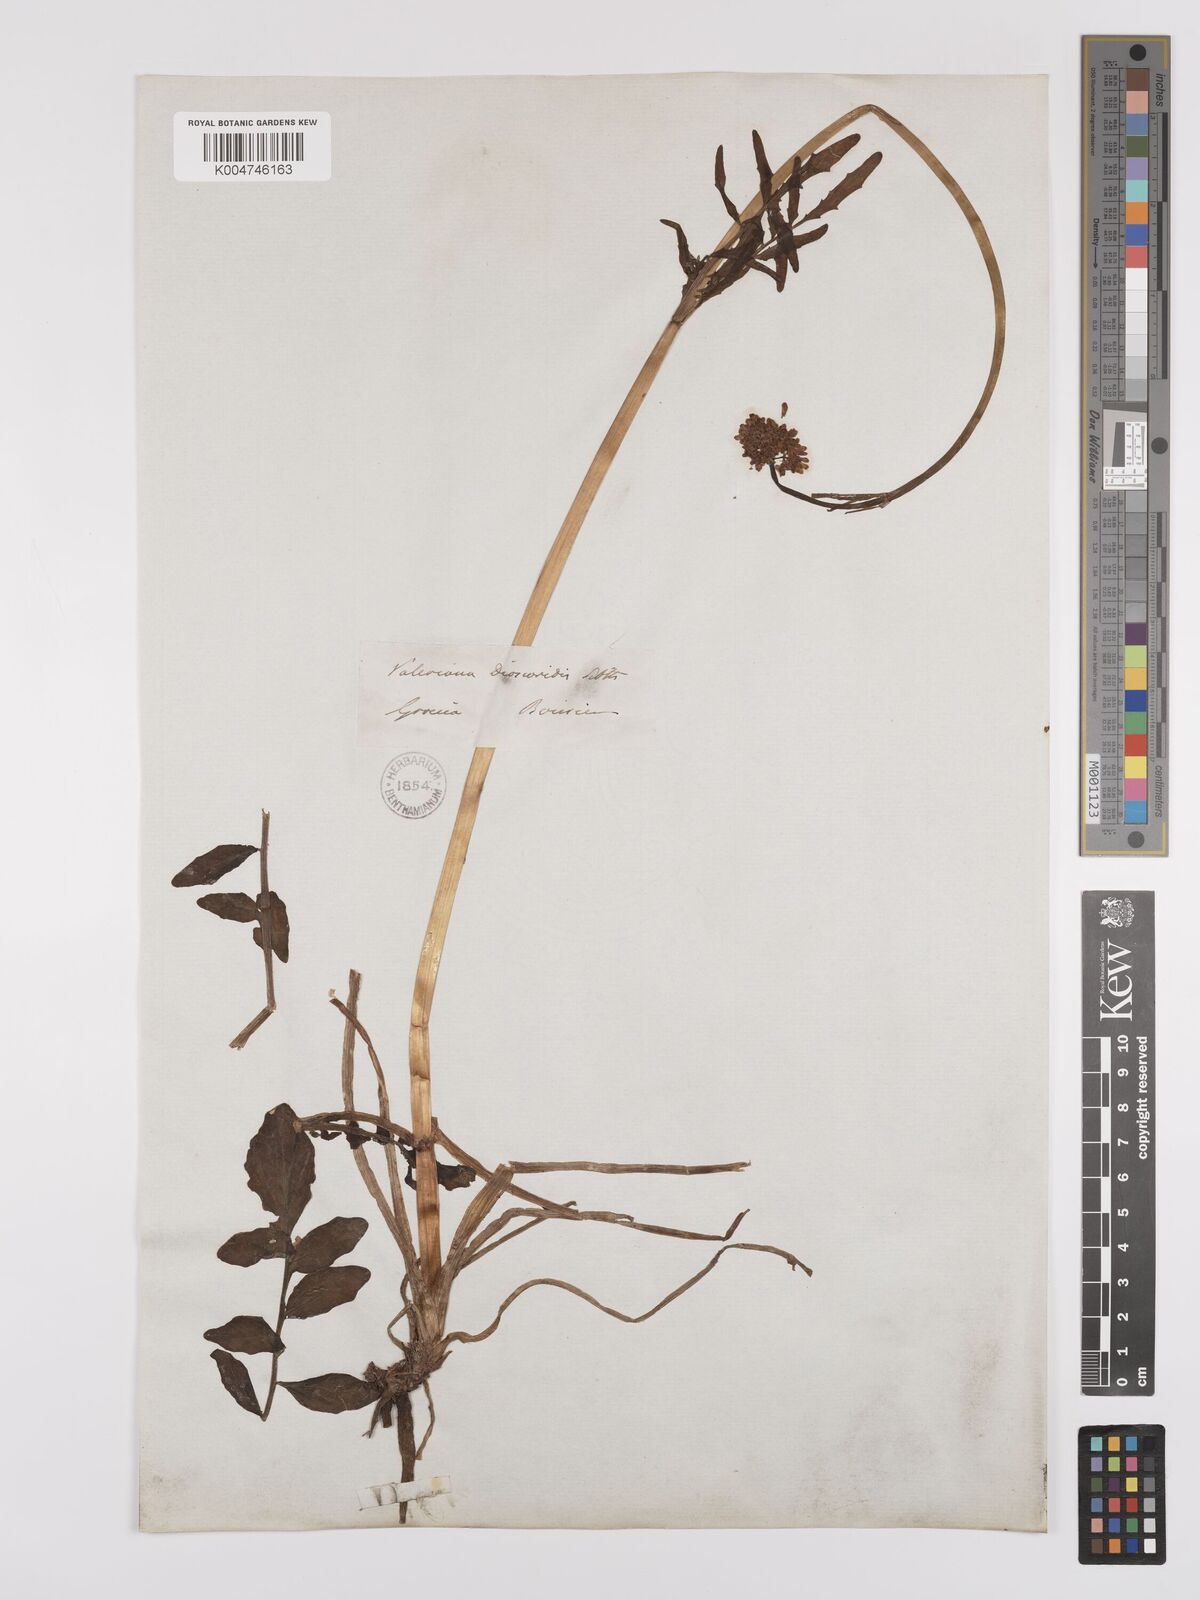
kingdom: Plantae
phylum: Tracheophyta
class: Magnoliopsida
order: Dipsacales
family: Caprifoliaceae
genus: Valeriana
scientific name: Valeriana dioscoridis
